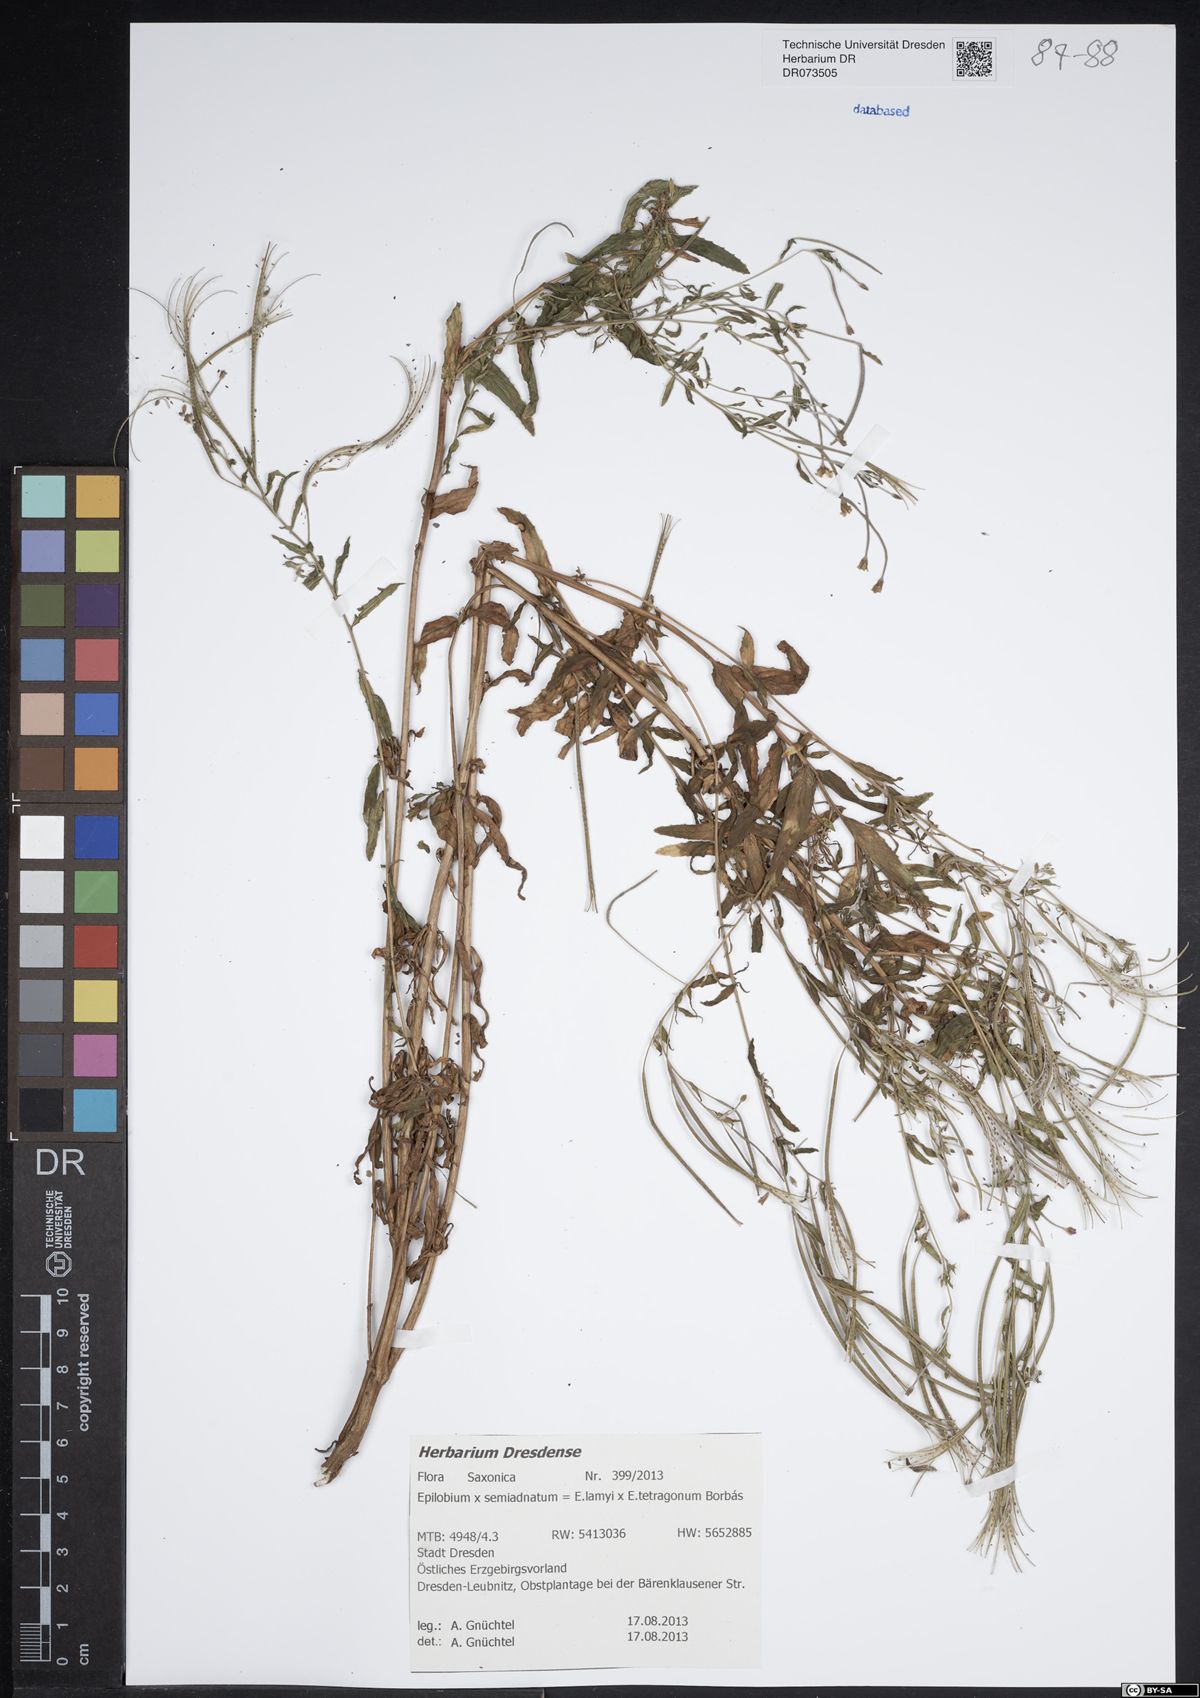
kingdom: Plantae
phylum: Tracheophyta
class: Magnoliopsida
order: Myrtales
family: Onagraceae
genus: Epilobium
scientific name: Epilobium semiadnatum
